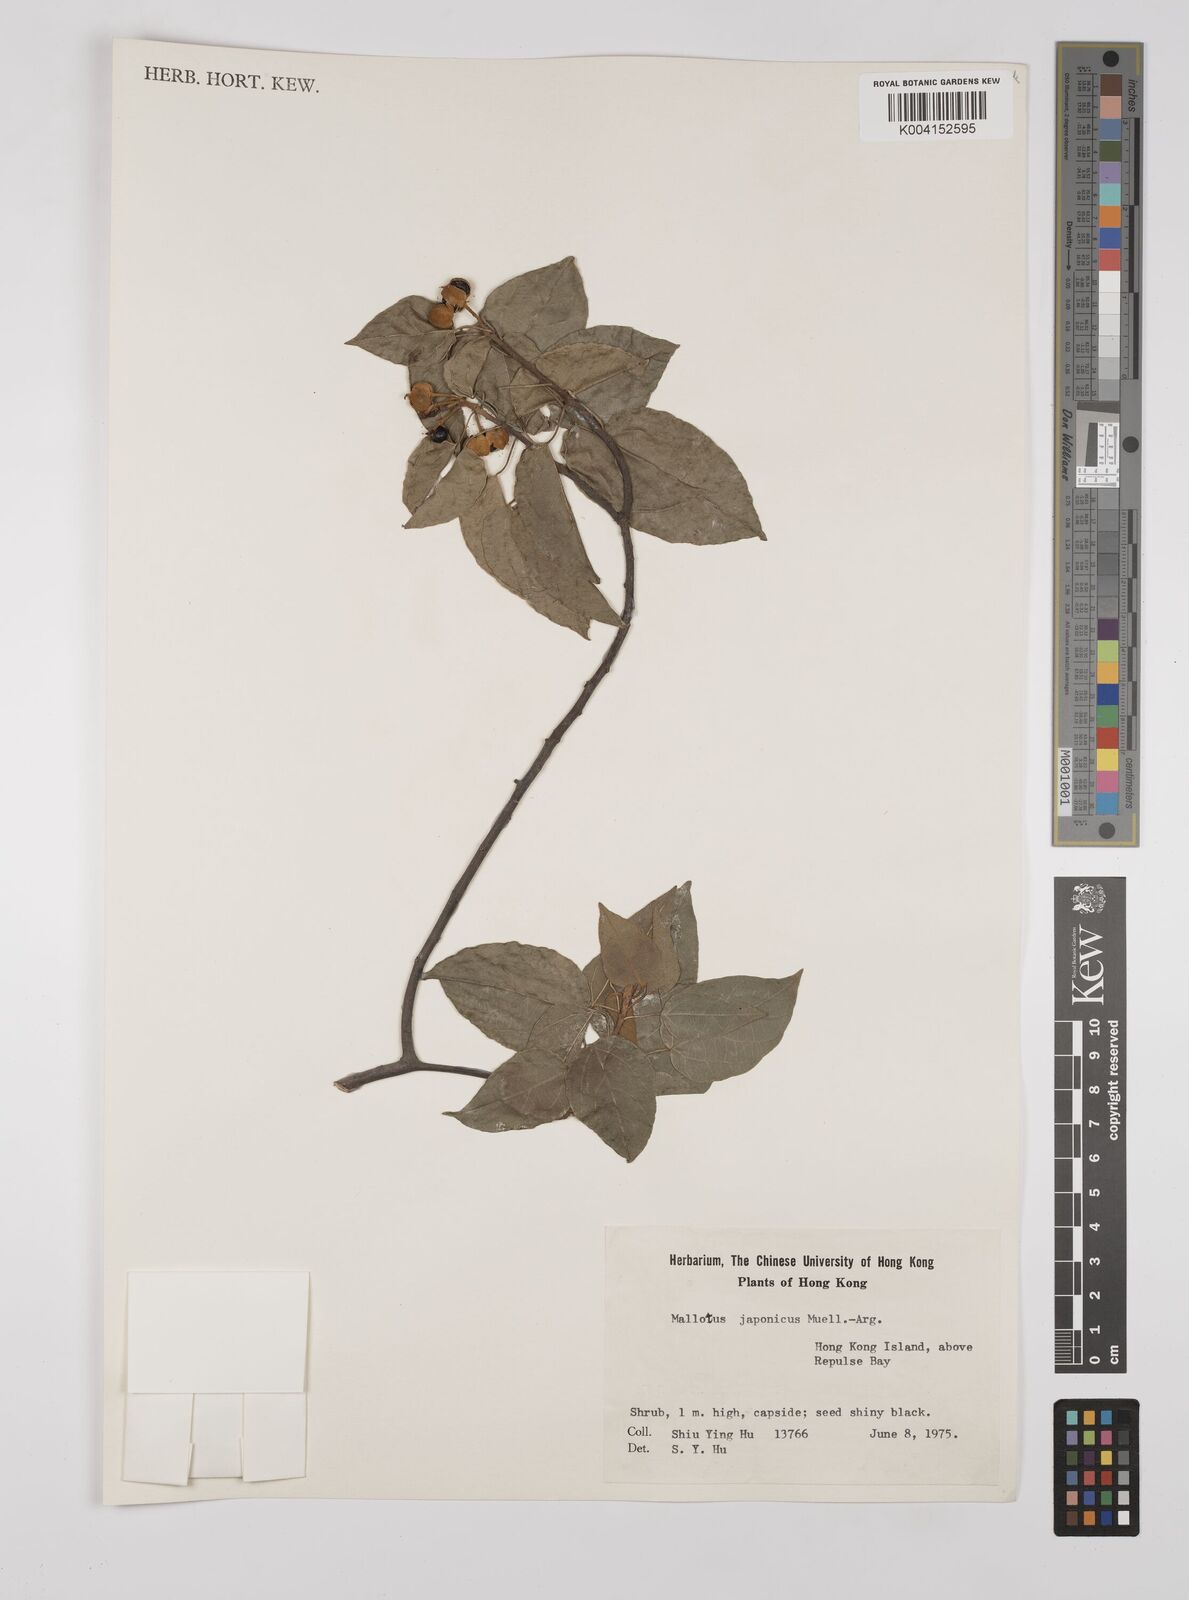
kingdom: Plantae
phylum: Tracheophyta
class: Magnoliopsida
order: Malpighiales
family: Euphorbiaceae
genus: Mallotus
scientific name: Mallotus japonicus
